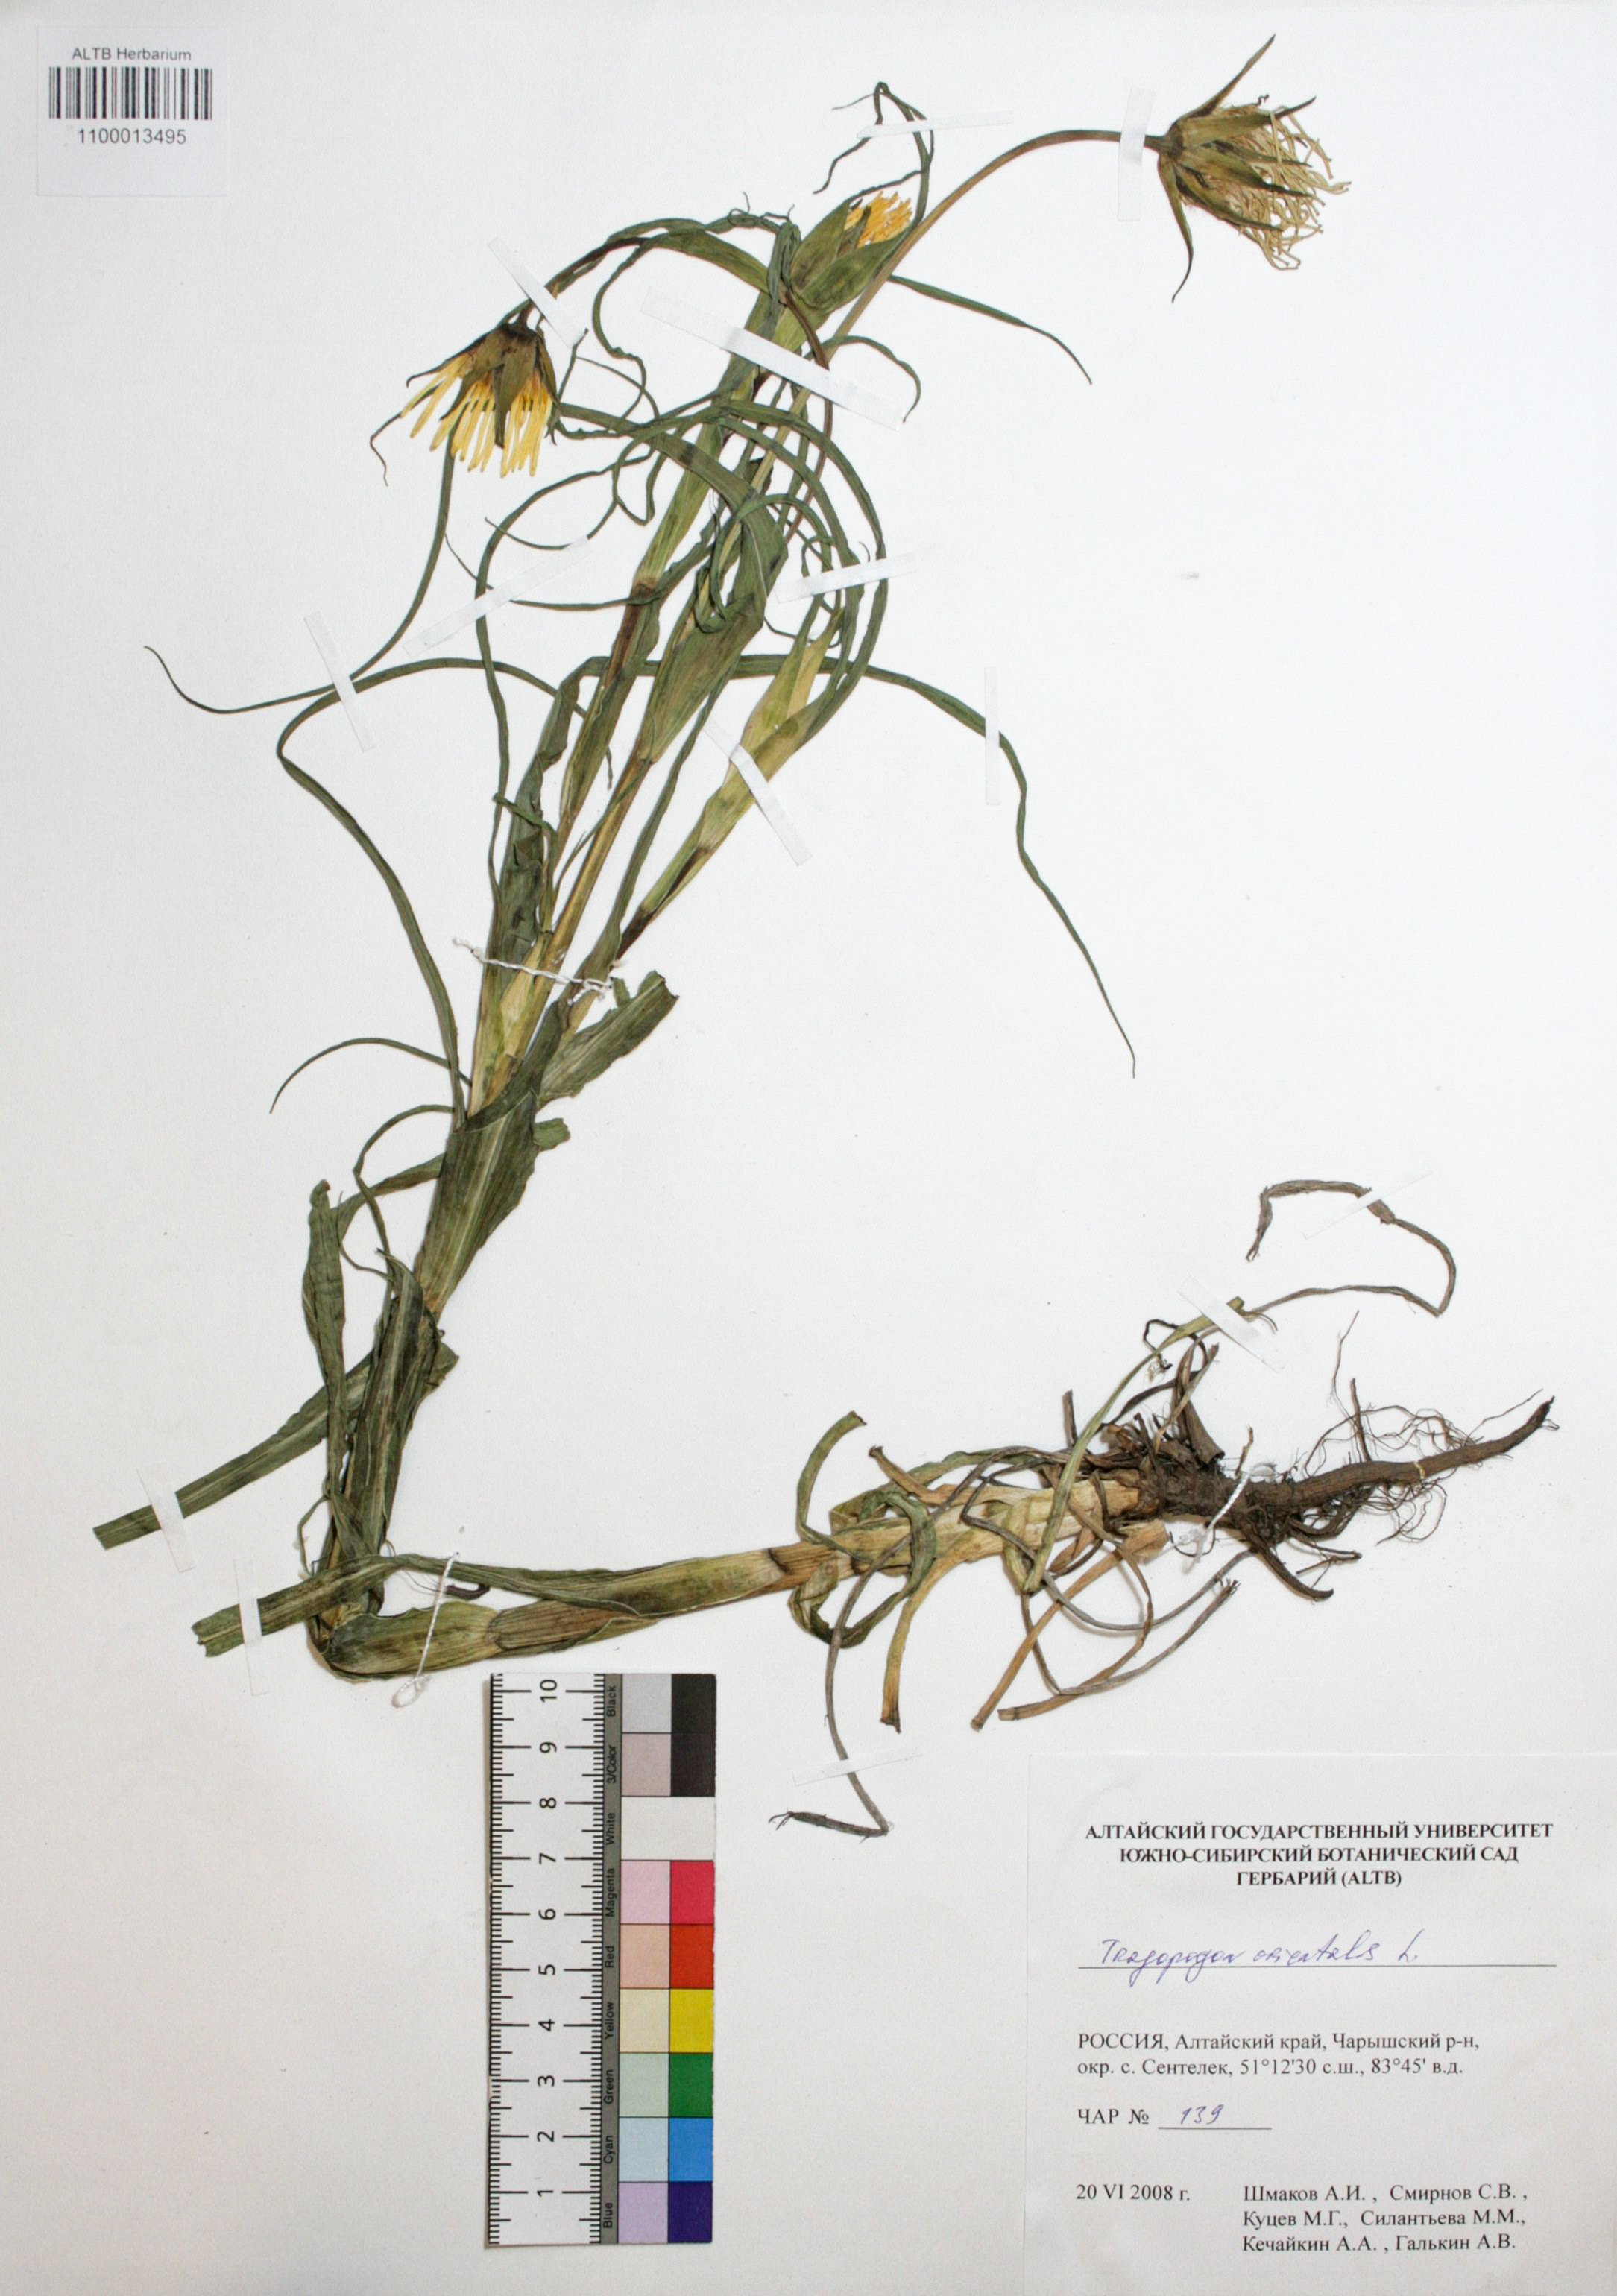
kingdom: Plantae
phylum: Tracheophyta
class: Magnoliopsida
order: Asterales
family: Asteraceae
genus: Tragopogon
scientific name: Tragopogon orientalis
